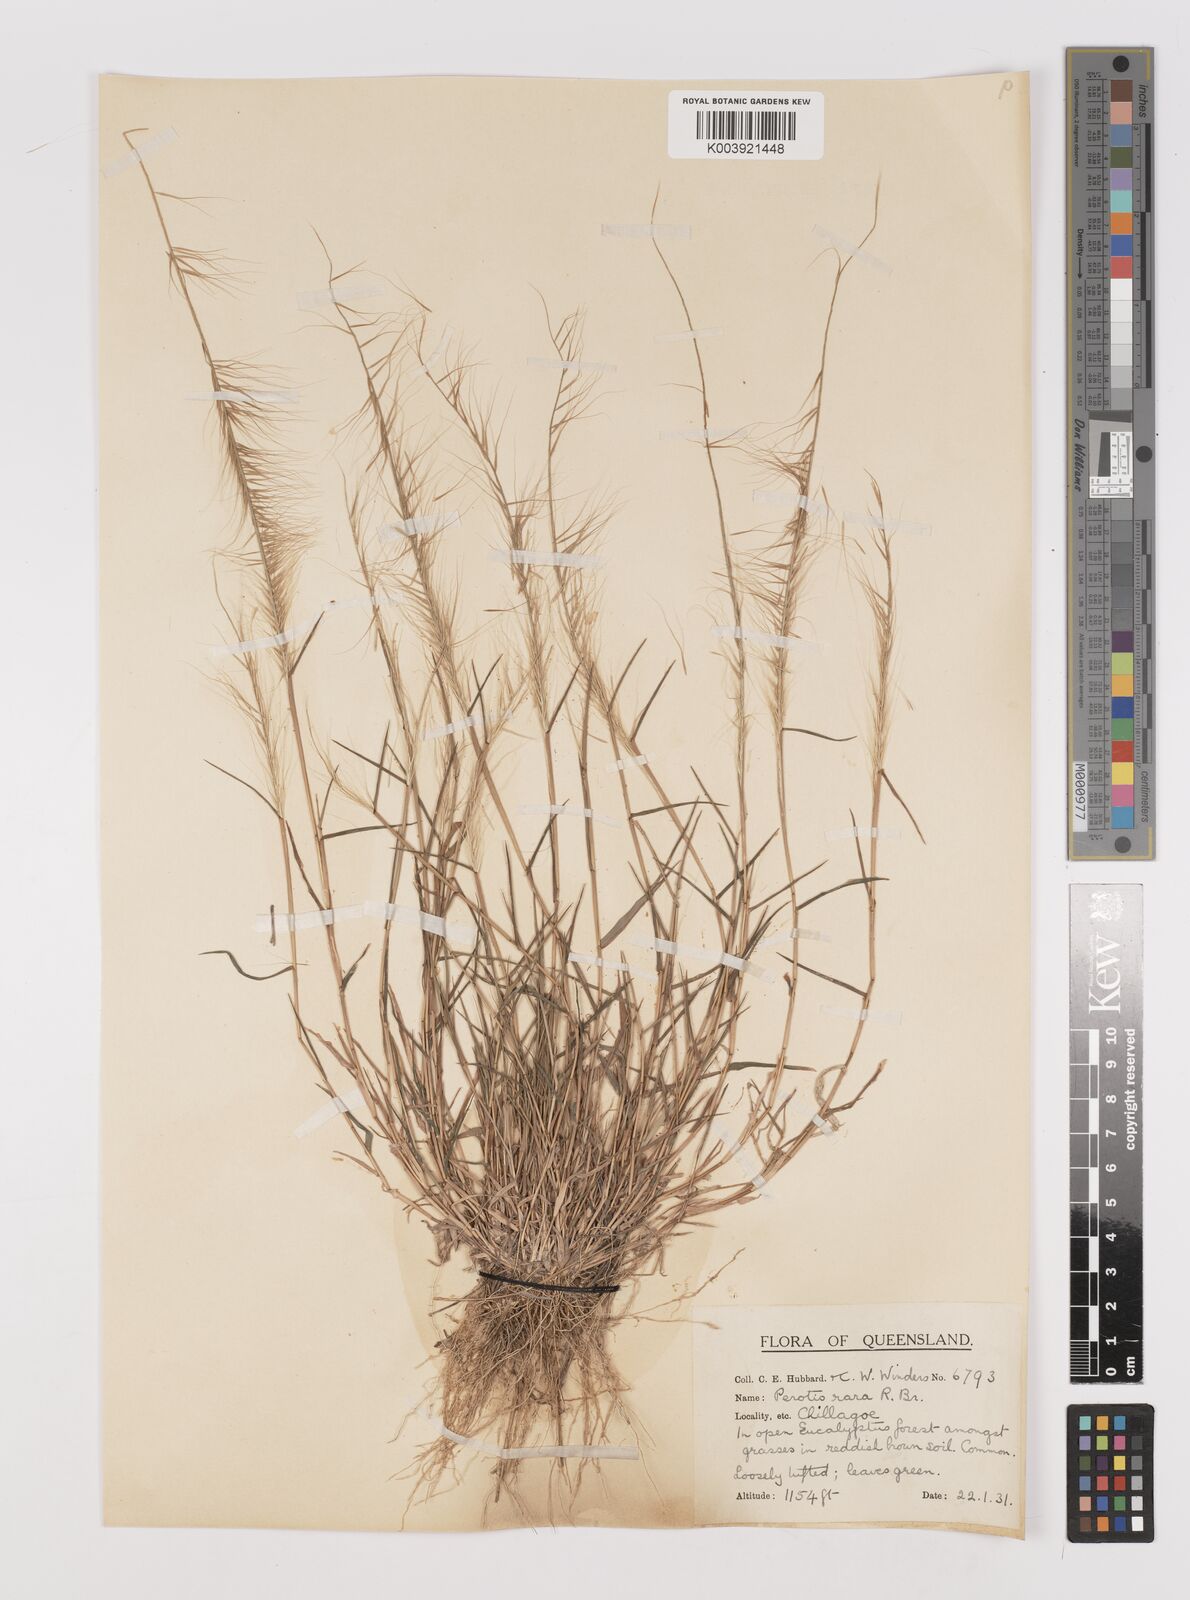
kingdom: Plantae
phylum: Tracheophyta
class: Liliopsida
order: Poales
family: Poaceae
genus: Perotis
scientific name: Perotis rara
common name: Comet grass
